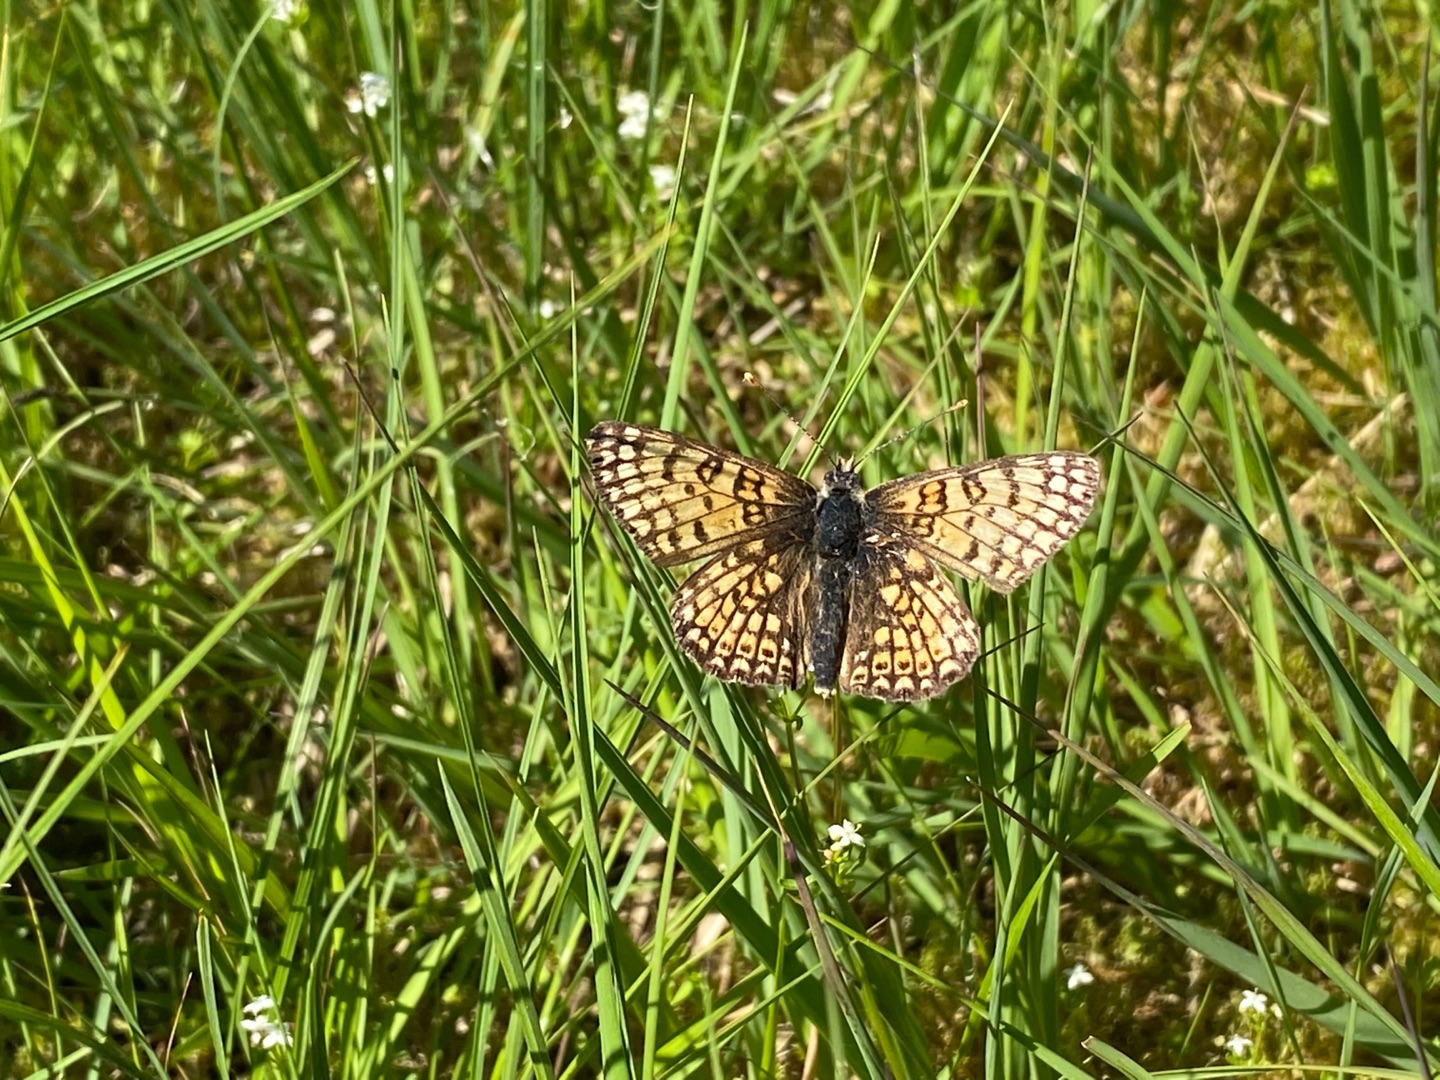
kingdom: Animalia
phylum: Arthropoda
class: Insecta
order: Lepidoptera
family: Nymphalidae
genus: Melitaea
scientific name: Melitaea cinxia
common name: Okkergul pletvinge
